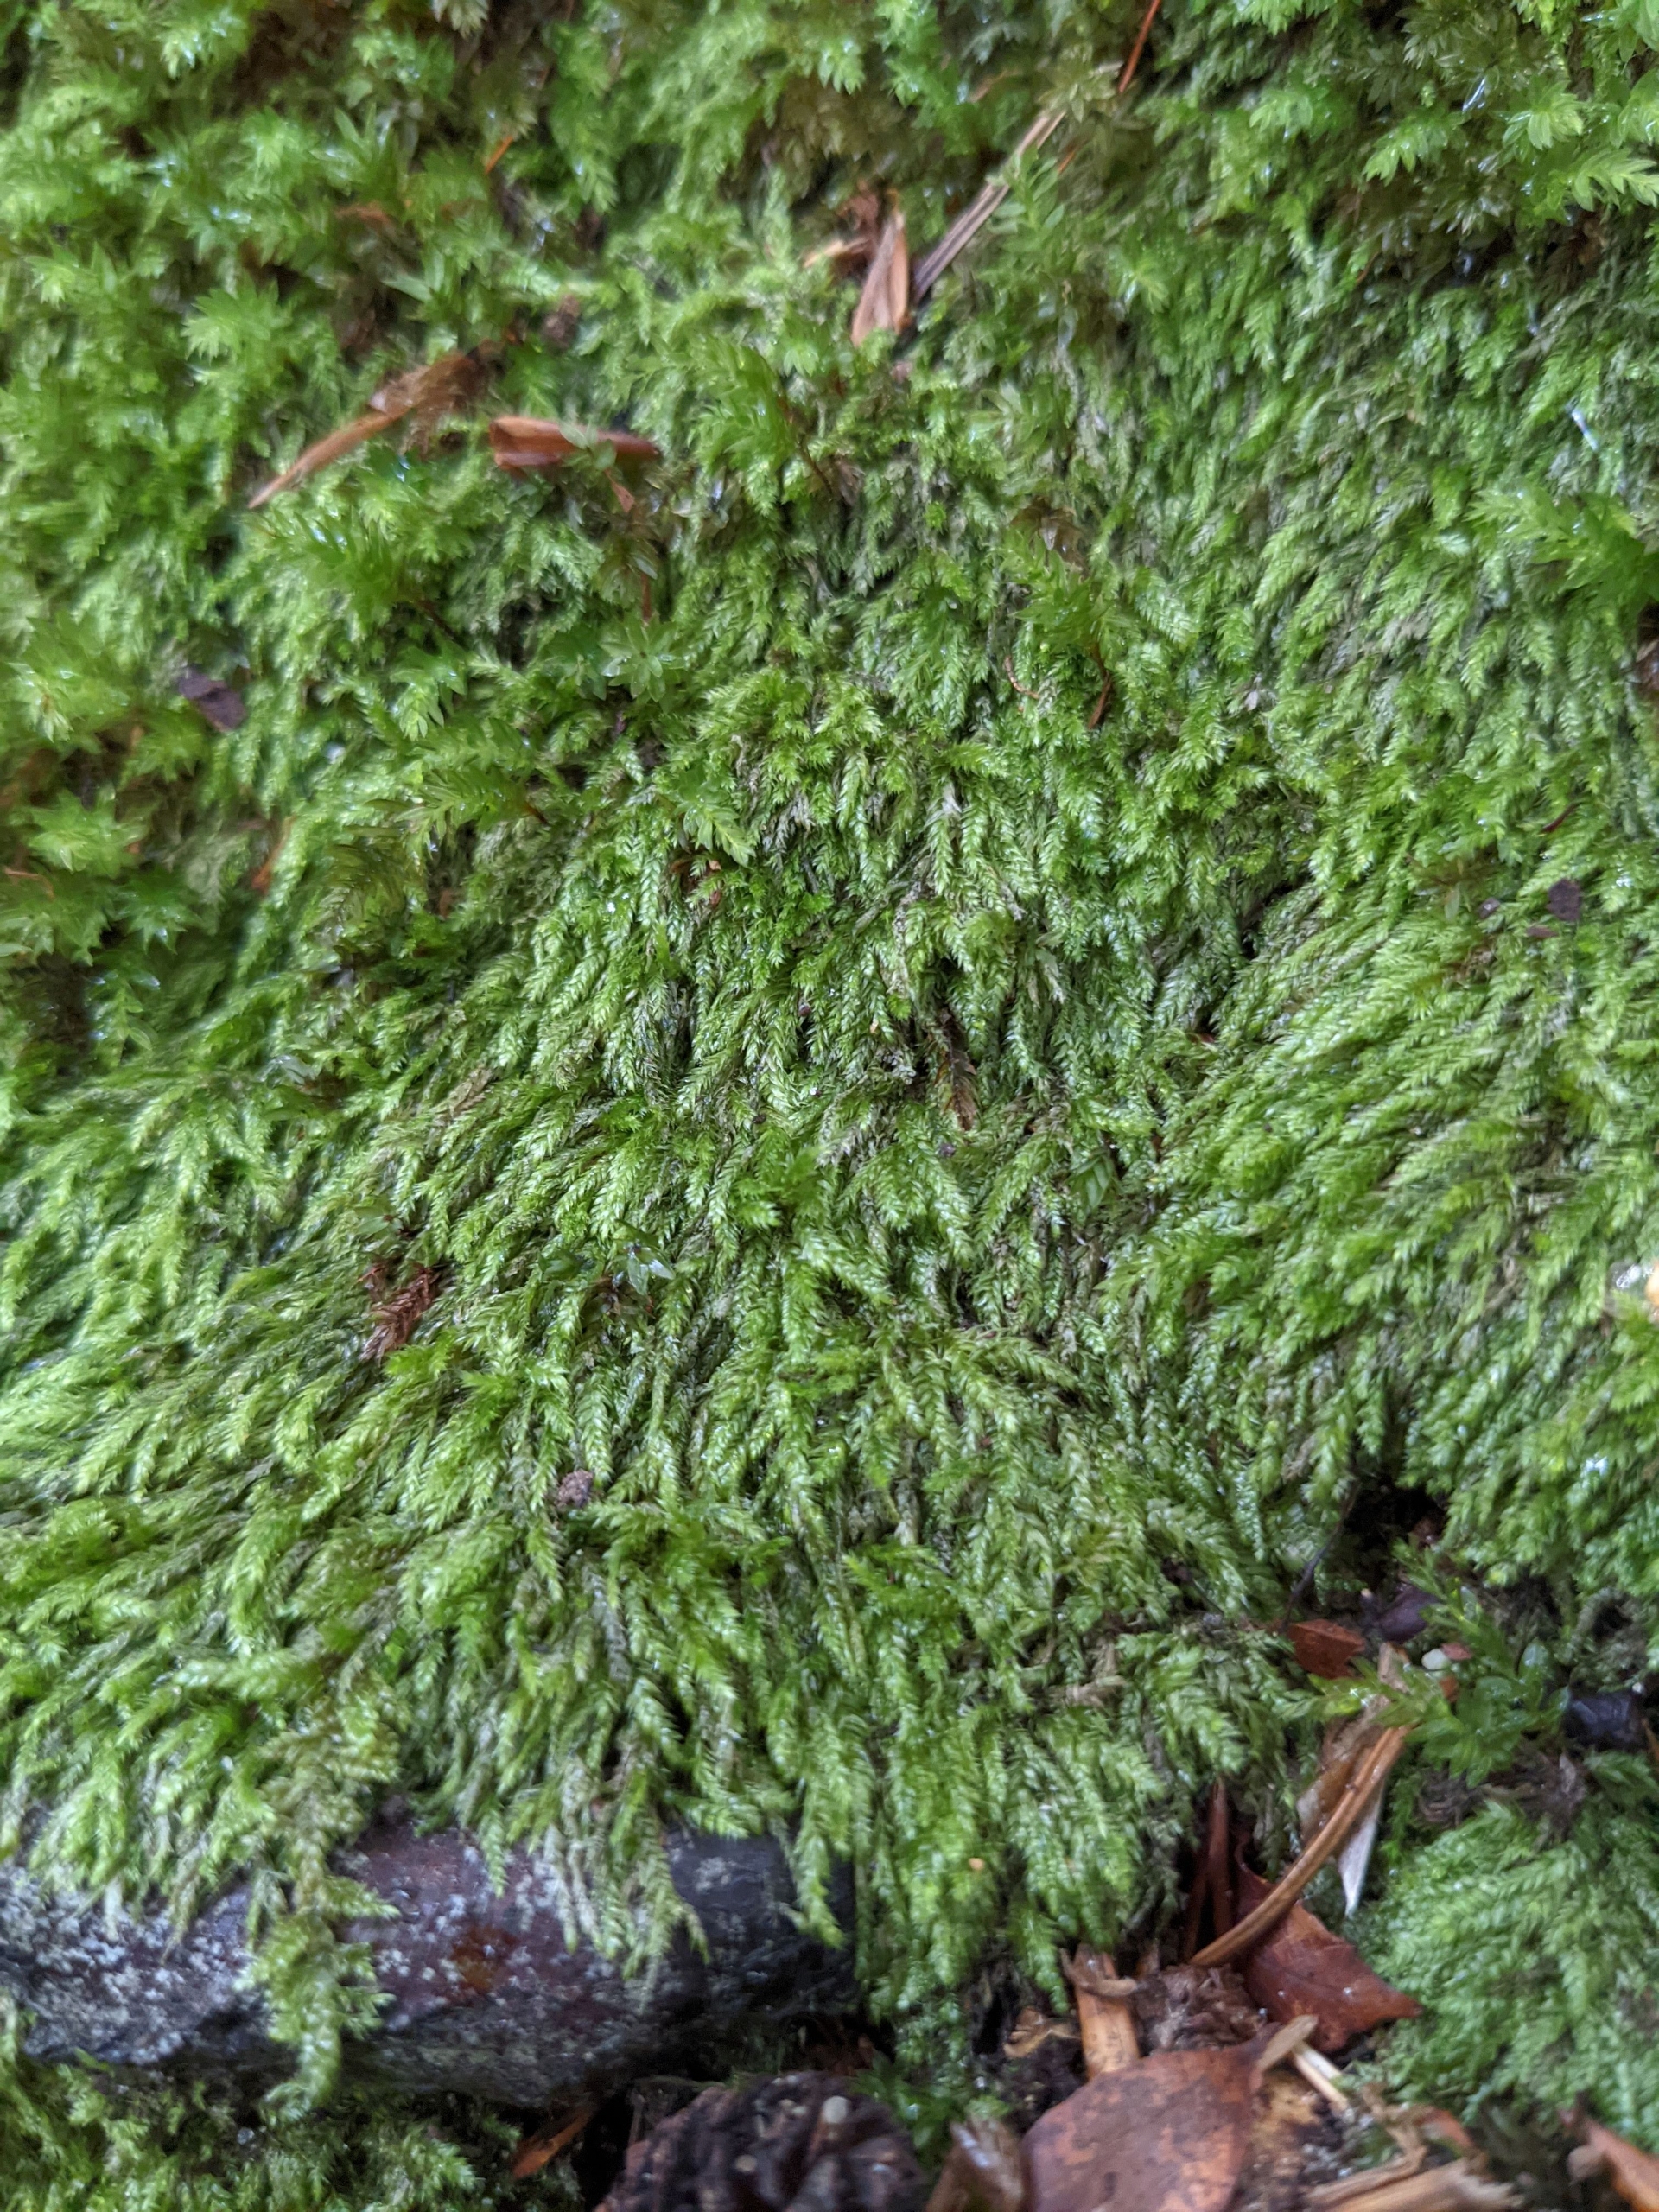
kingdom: Plantae
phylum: Bryophyta
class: Bryopsida
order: Hypnales
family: Plagiotheciaceae
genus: Pseudotaxiphyllum
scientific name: Pseudotaxiphyllum elegans
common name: Skinnende ynglegren
